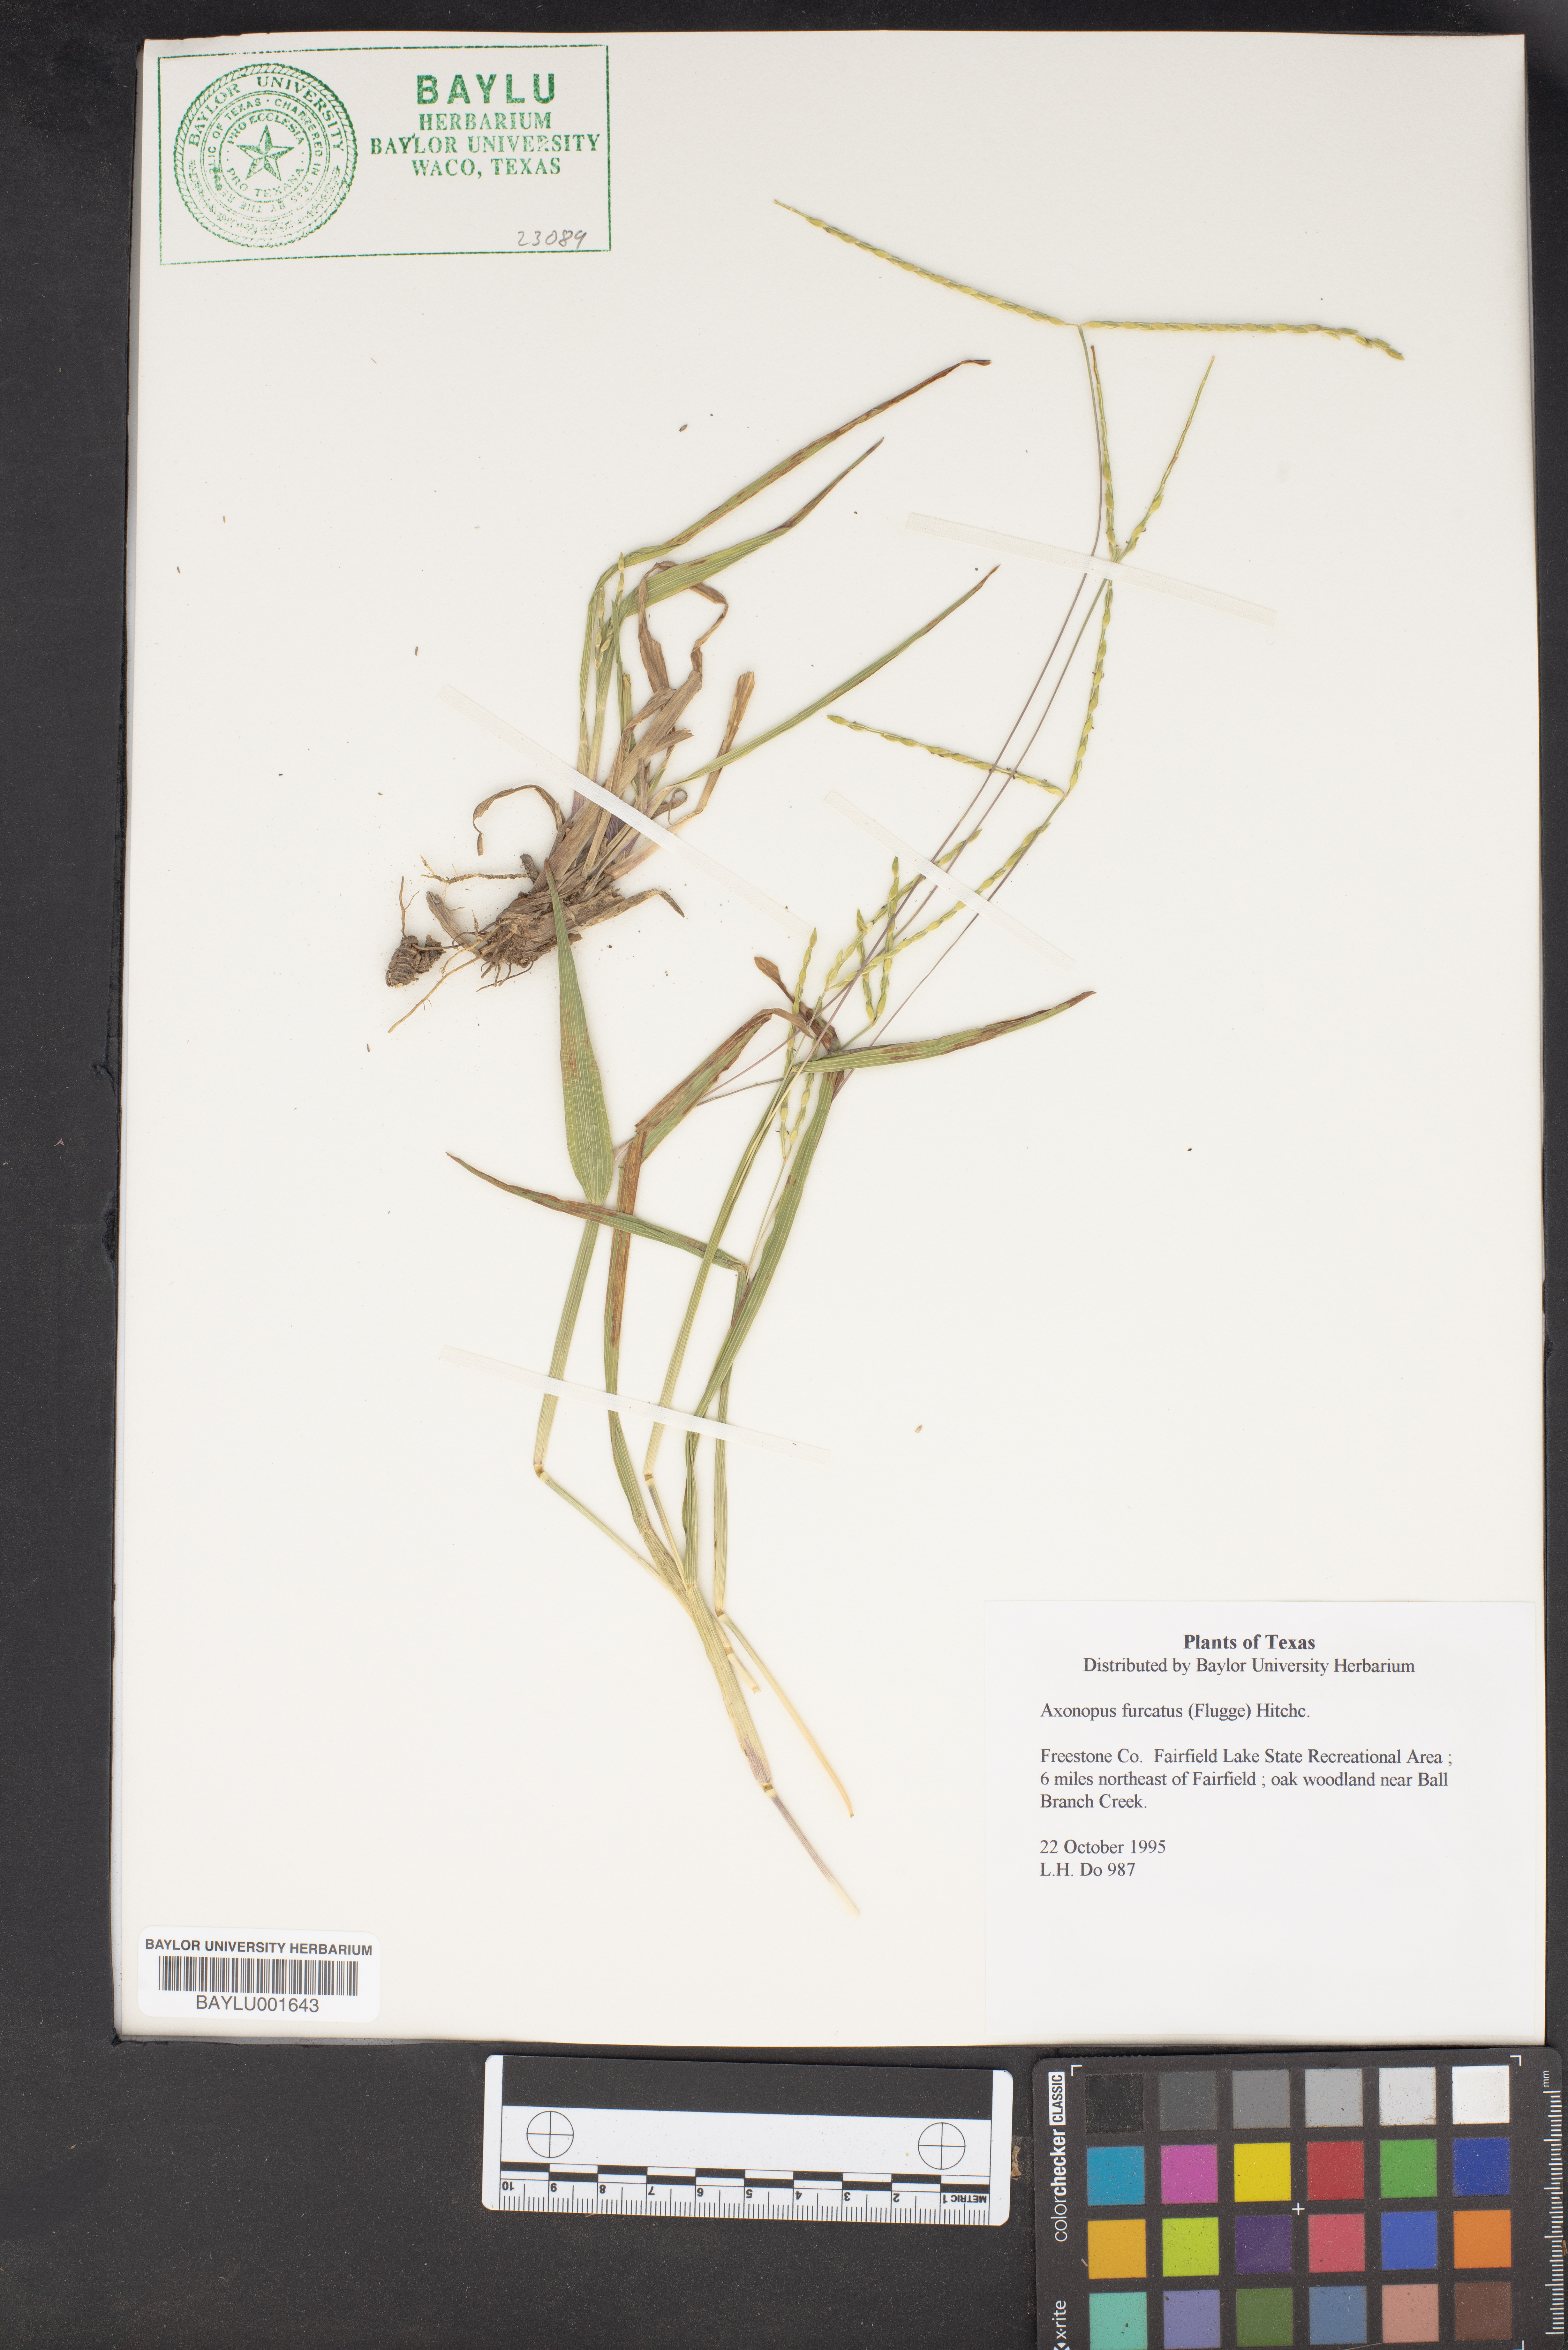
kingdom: Plantae
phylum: Tracheophyta
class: Liliopsida
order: Poales
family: Poaceae
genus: Axonopus
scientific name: Axonopus furcatus
